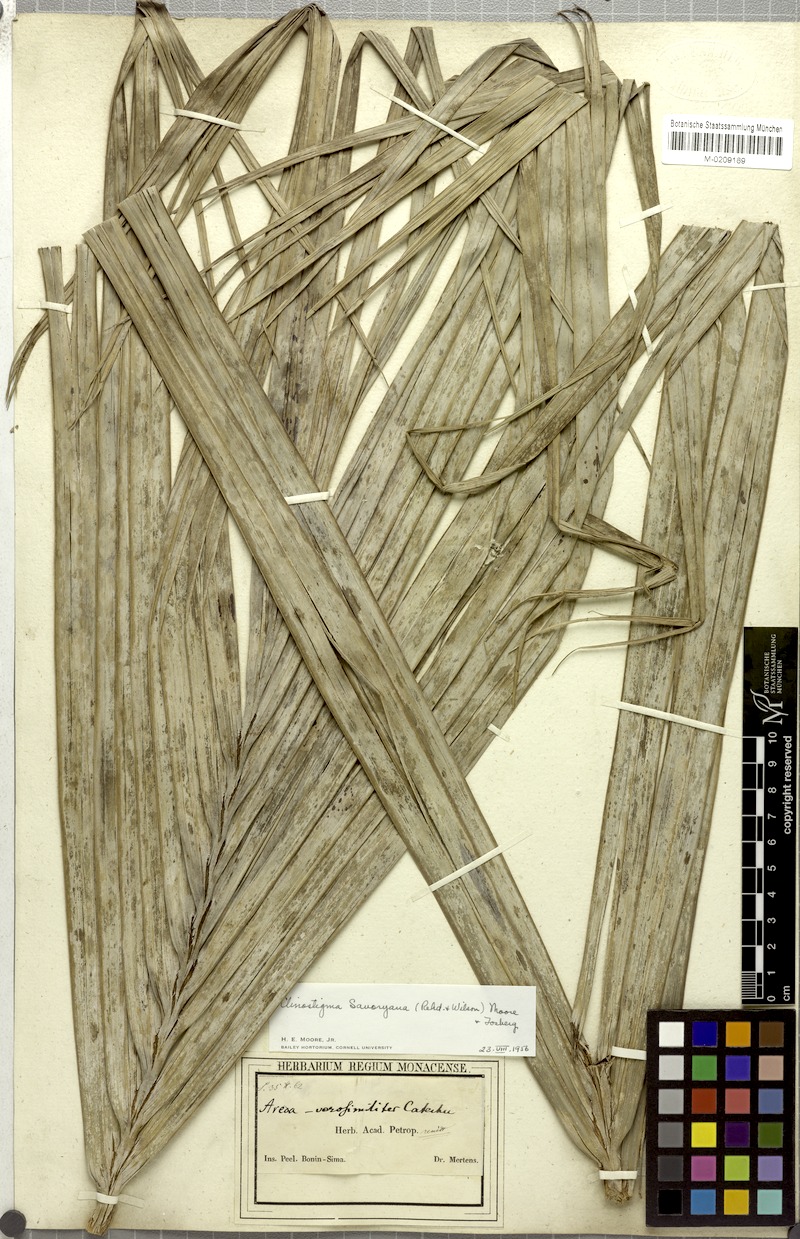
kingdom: Plantae
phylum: Tracheophyta
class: Liliopsida
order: Arecales
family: Arecaceae
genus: Clinostigma
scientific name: Clinostigma savoryanum
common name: Arrack tree
